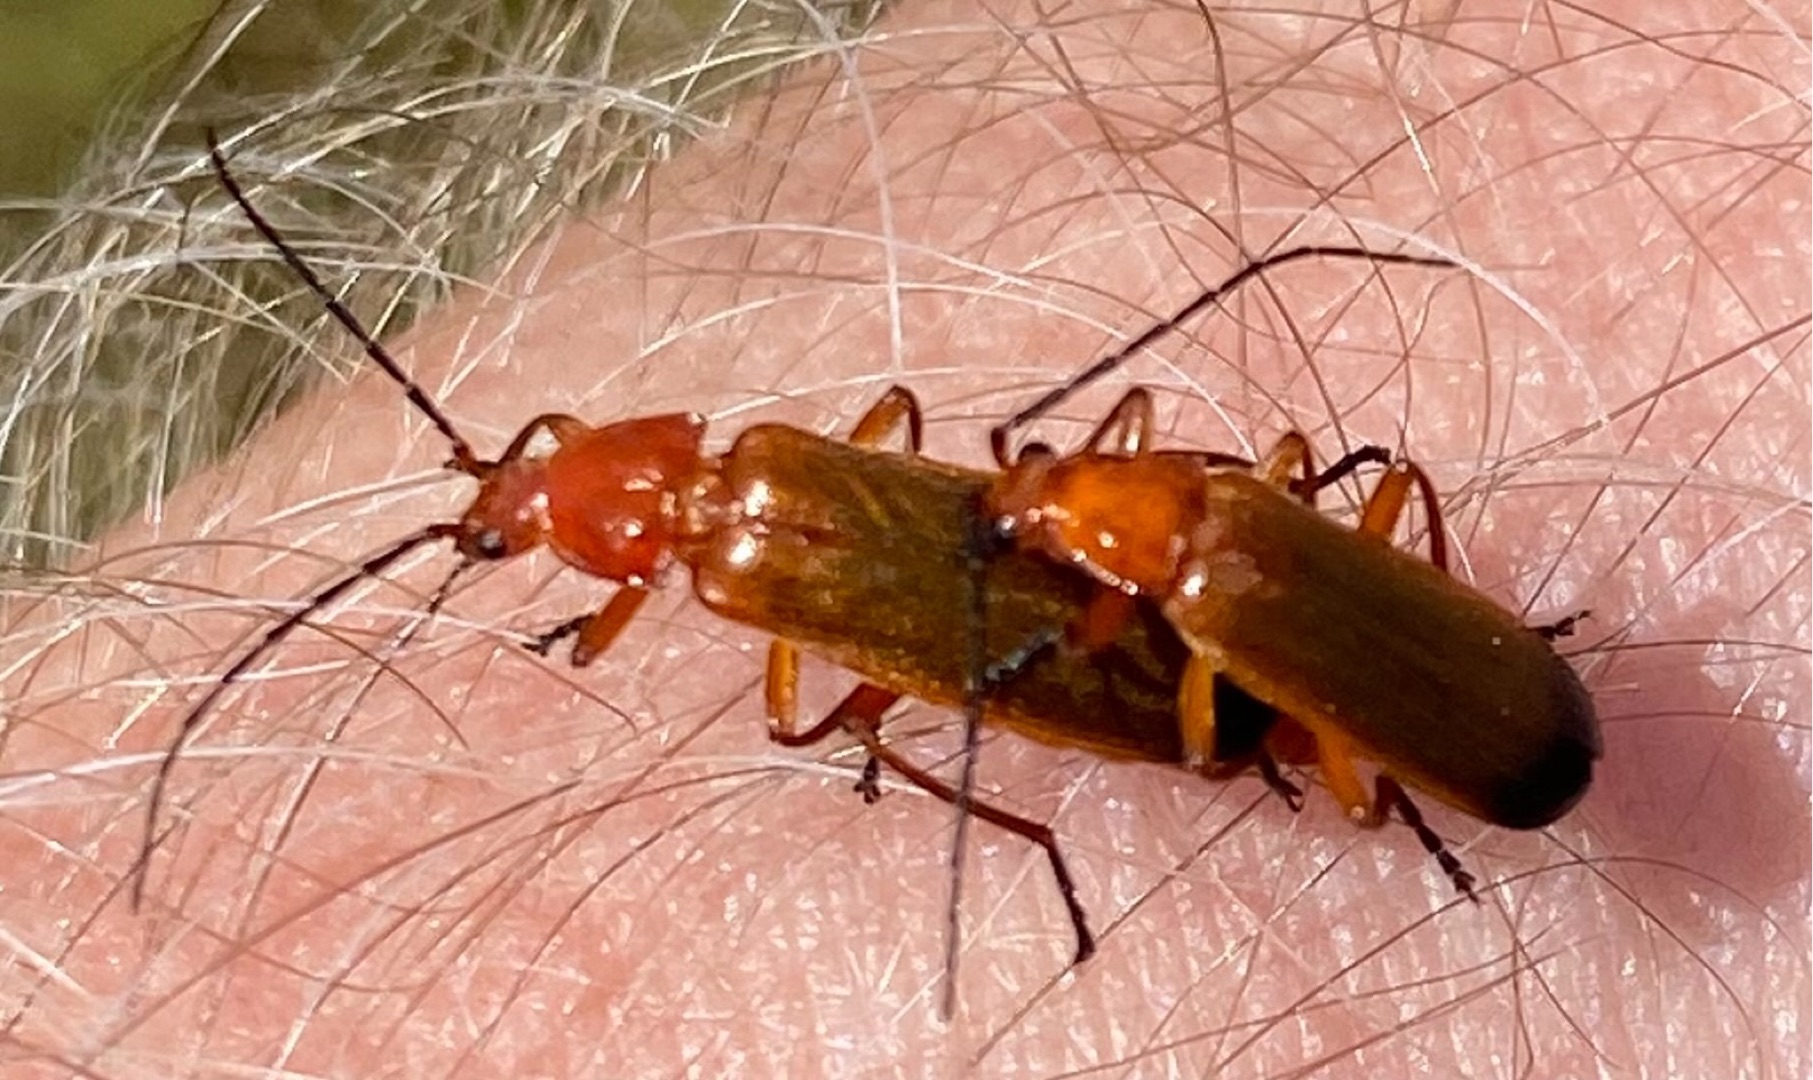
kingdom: Animalia
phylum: Arthropoda
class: Insecta
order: Coleoptera
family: Cantharidae
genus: Rhagonycha
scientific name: Rhagonycha fulva
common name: Præstebille
